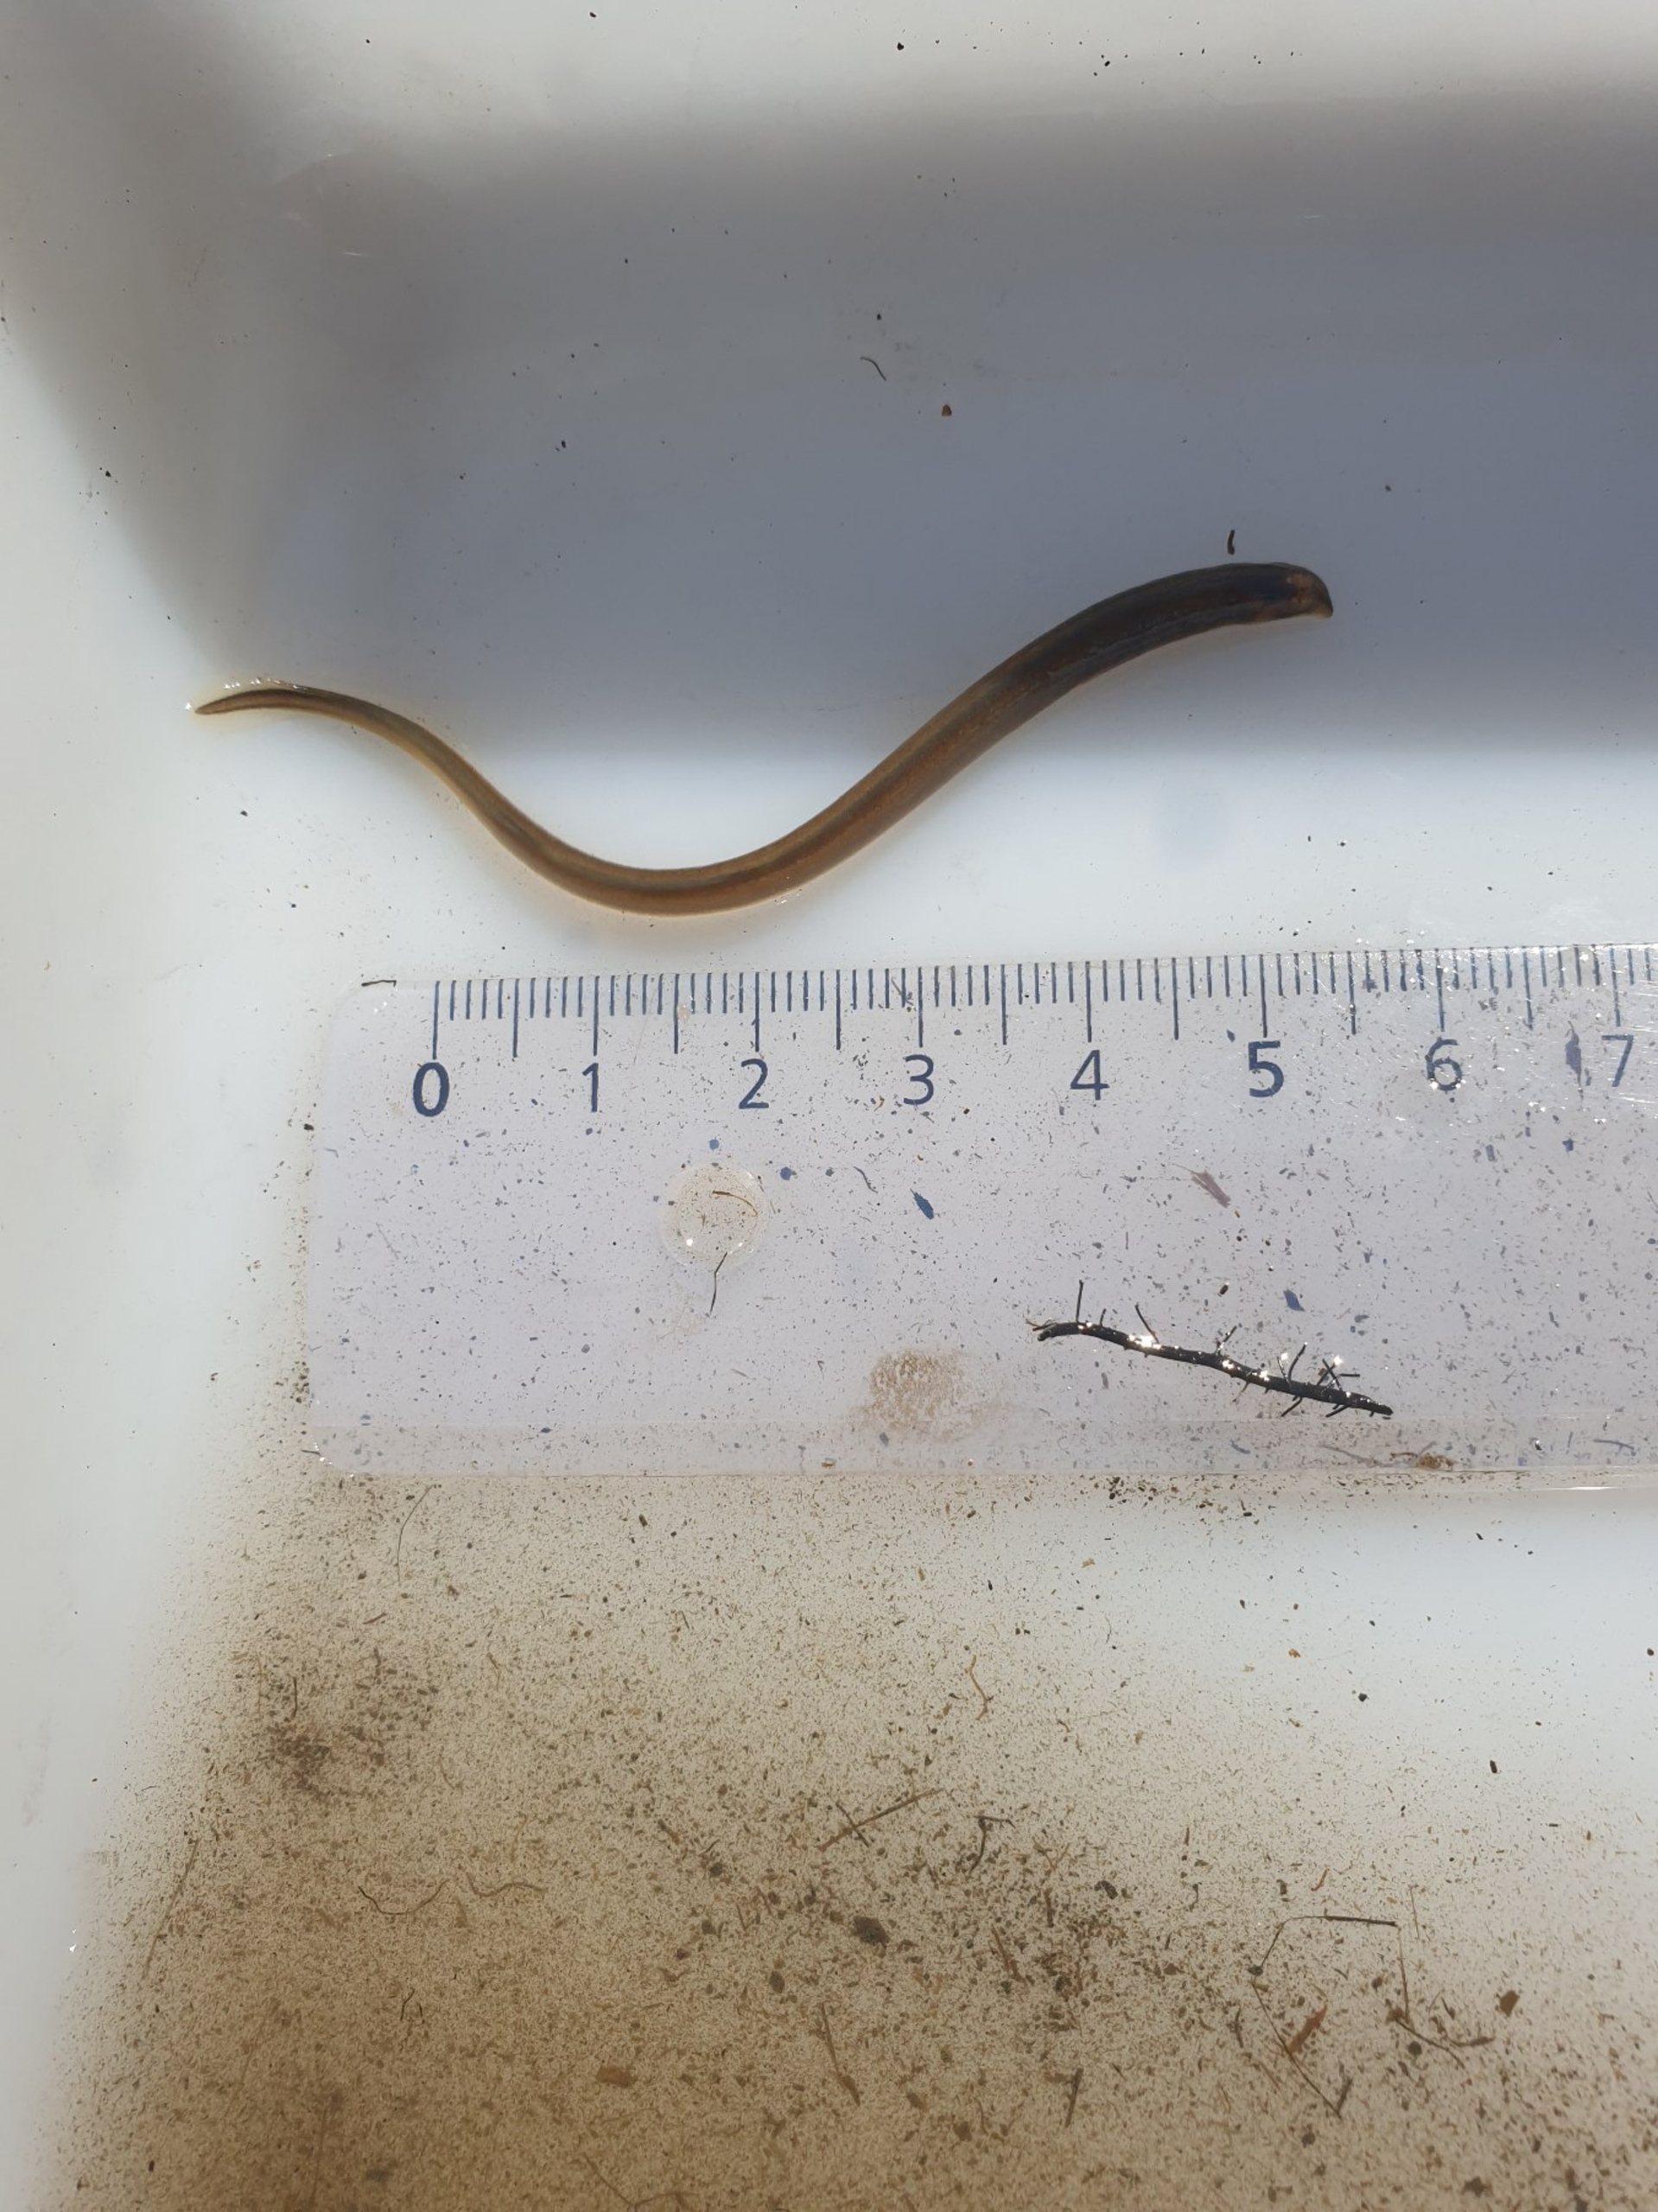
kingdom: Animalia
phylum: Chordata
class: Petromyzonti
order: Petromyzontiformes
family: Petromyzontidae
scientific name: Petromyzontidae
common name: Lampretfamilien
